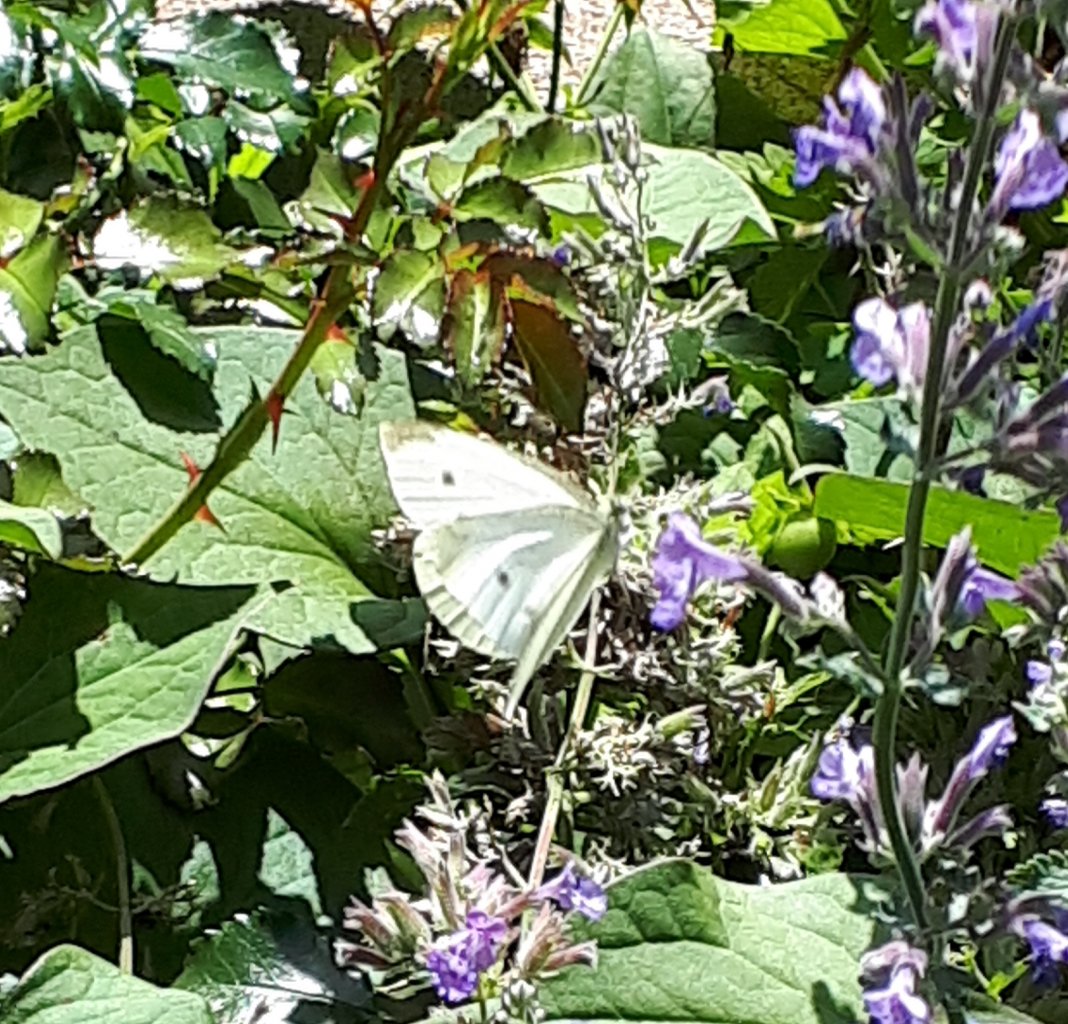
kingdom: Animalia
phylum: Arthropoda
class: Insecta
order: Lepidoptera
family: Pieridae
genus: Pieris
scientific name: Pieris rapae
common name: Cabbage White
